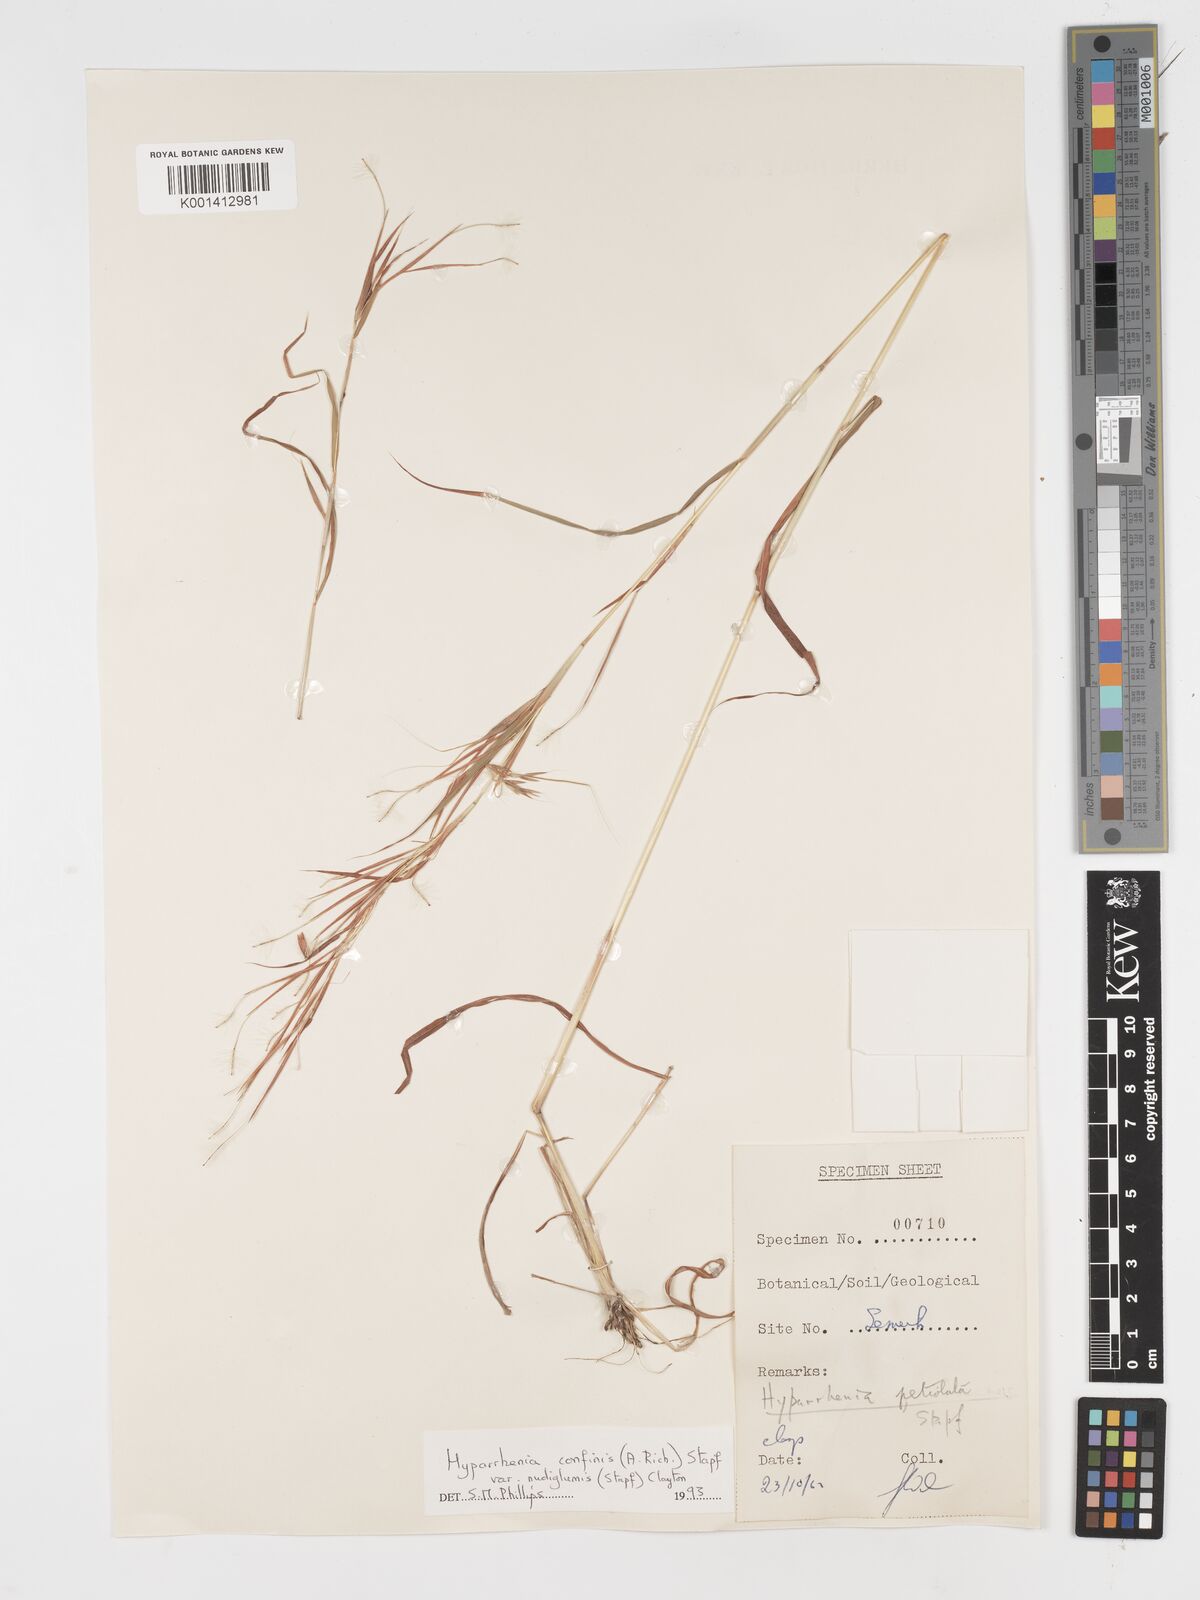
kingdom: Plantae
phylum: Tracheophyta
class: Liliopsida
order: Poales
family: Poaceae
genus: Hyparrhenia
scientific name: Hyparrhenia confinis
